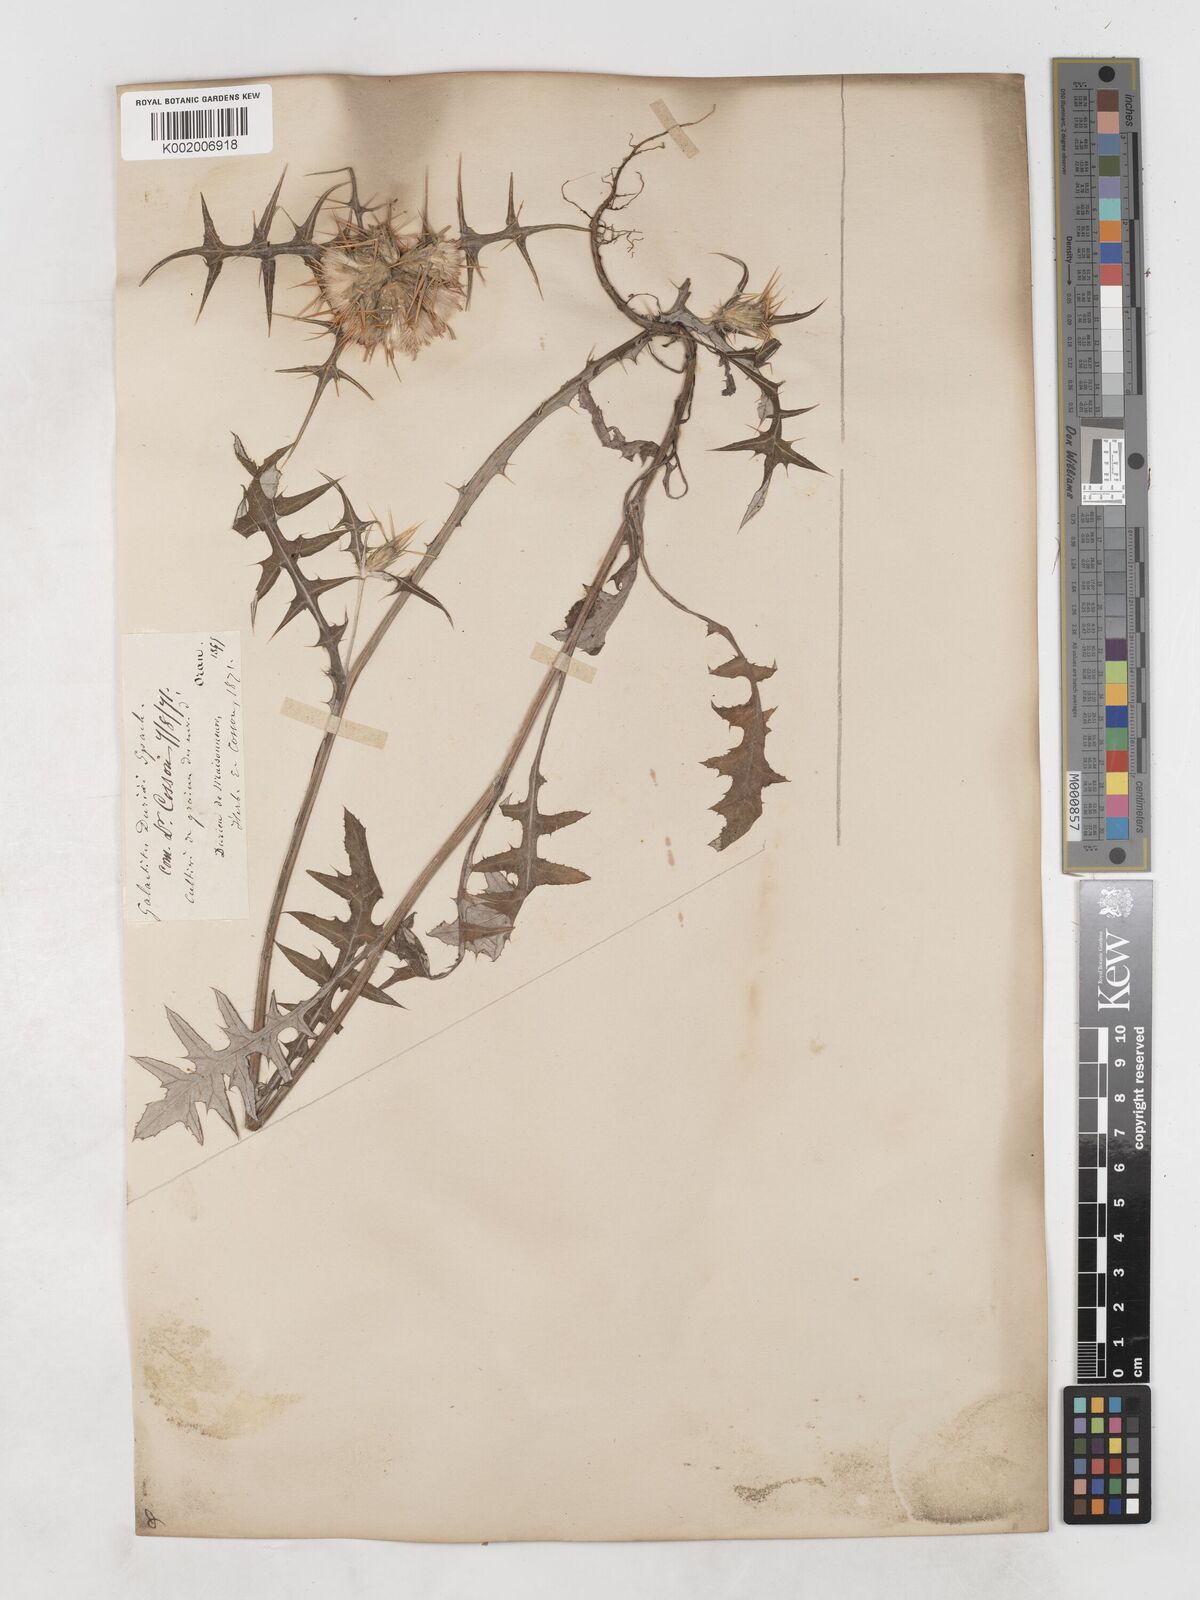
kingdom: Plantae
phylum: Tracheophyta
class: Magnoliopsida
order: Asterales
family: Asteraceae
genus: Galactites
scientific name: Galactites duriaei
